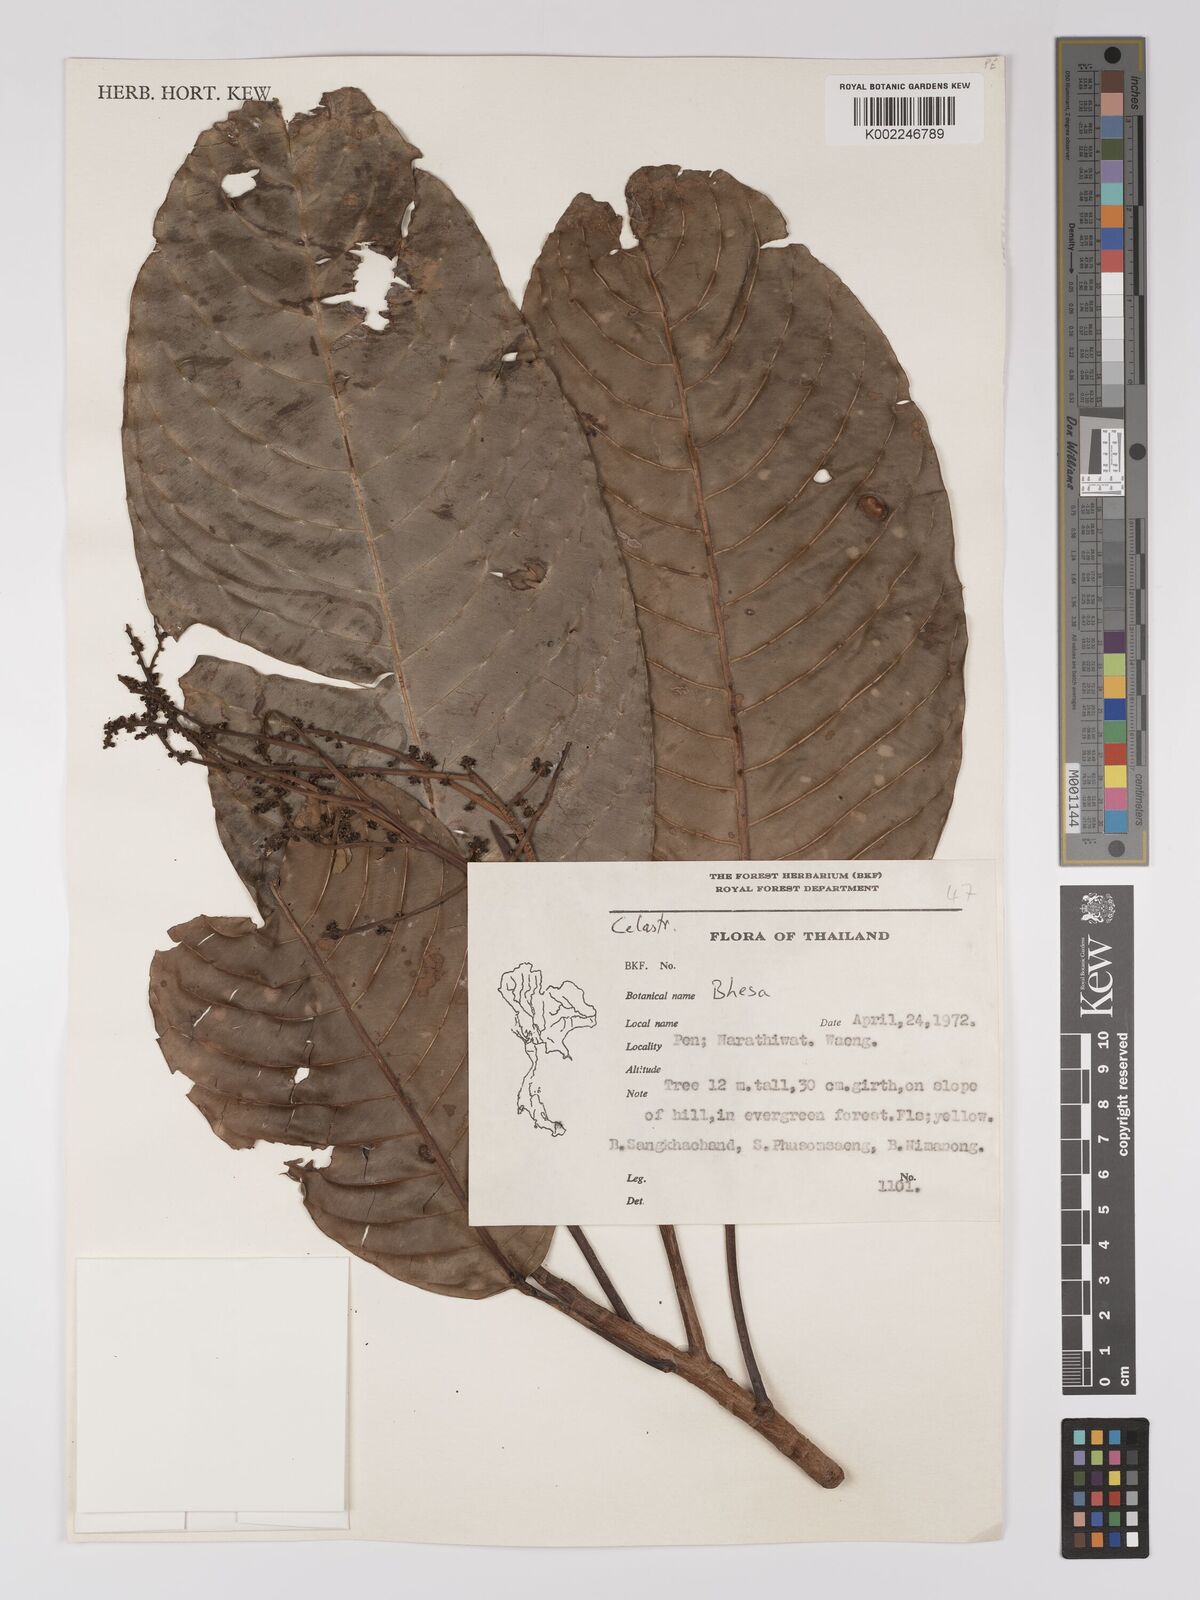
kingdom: Plantae
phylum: Tracheophyta
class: Magnoliopsida
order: Malpighiales
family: Centroplacaceae
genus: Bhesa
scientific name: Bhesa
